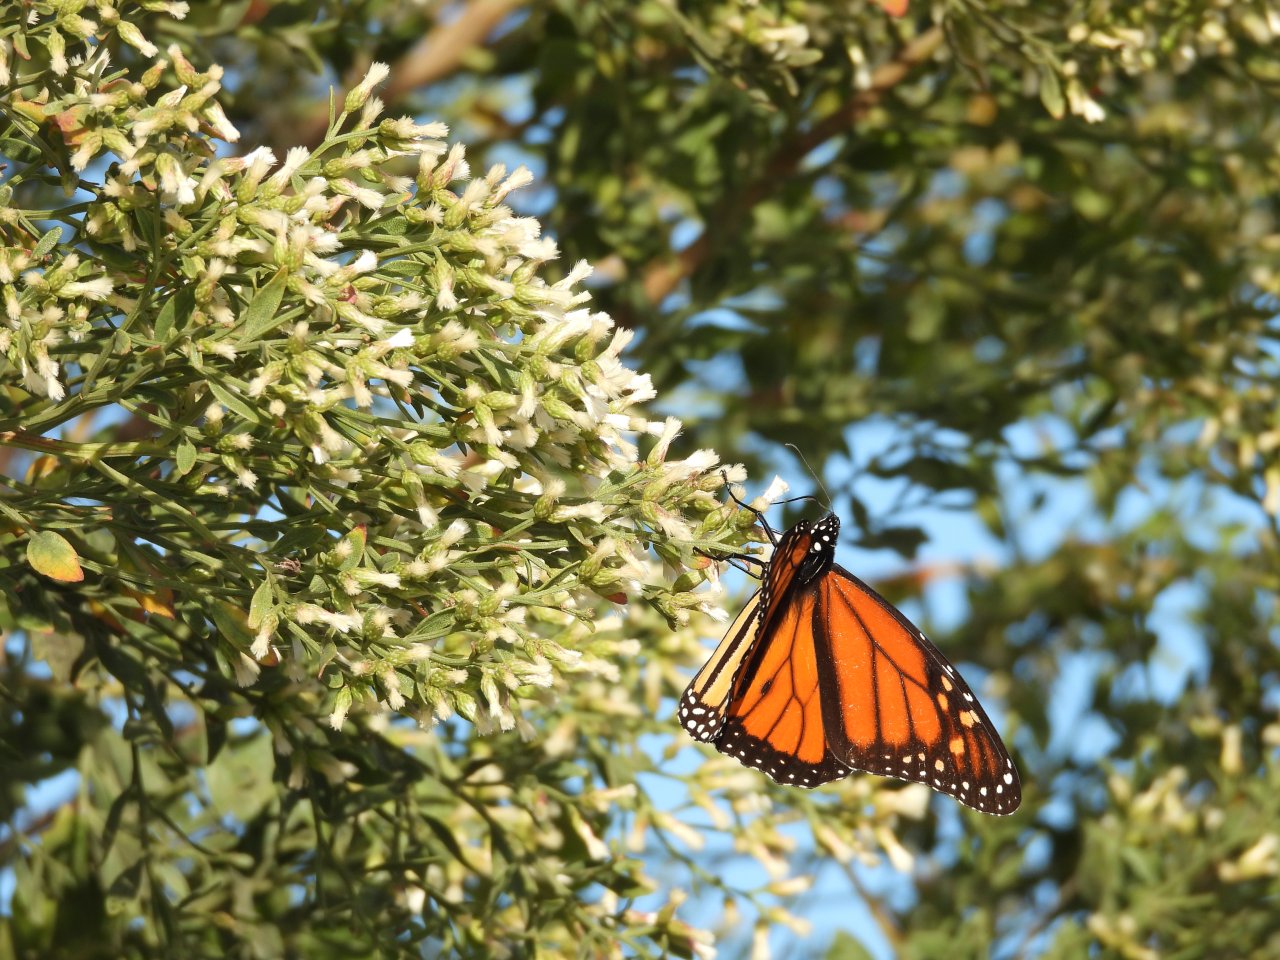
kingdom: Animalia
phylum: Arthropoda
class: Insecta
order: Lepidoptera
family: Nymphalidae
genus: Danaus
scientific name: Danaus plexippus
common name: Monarch
